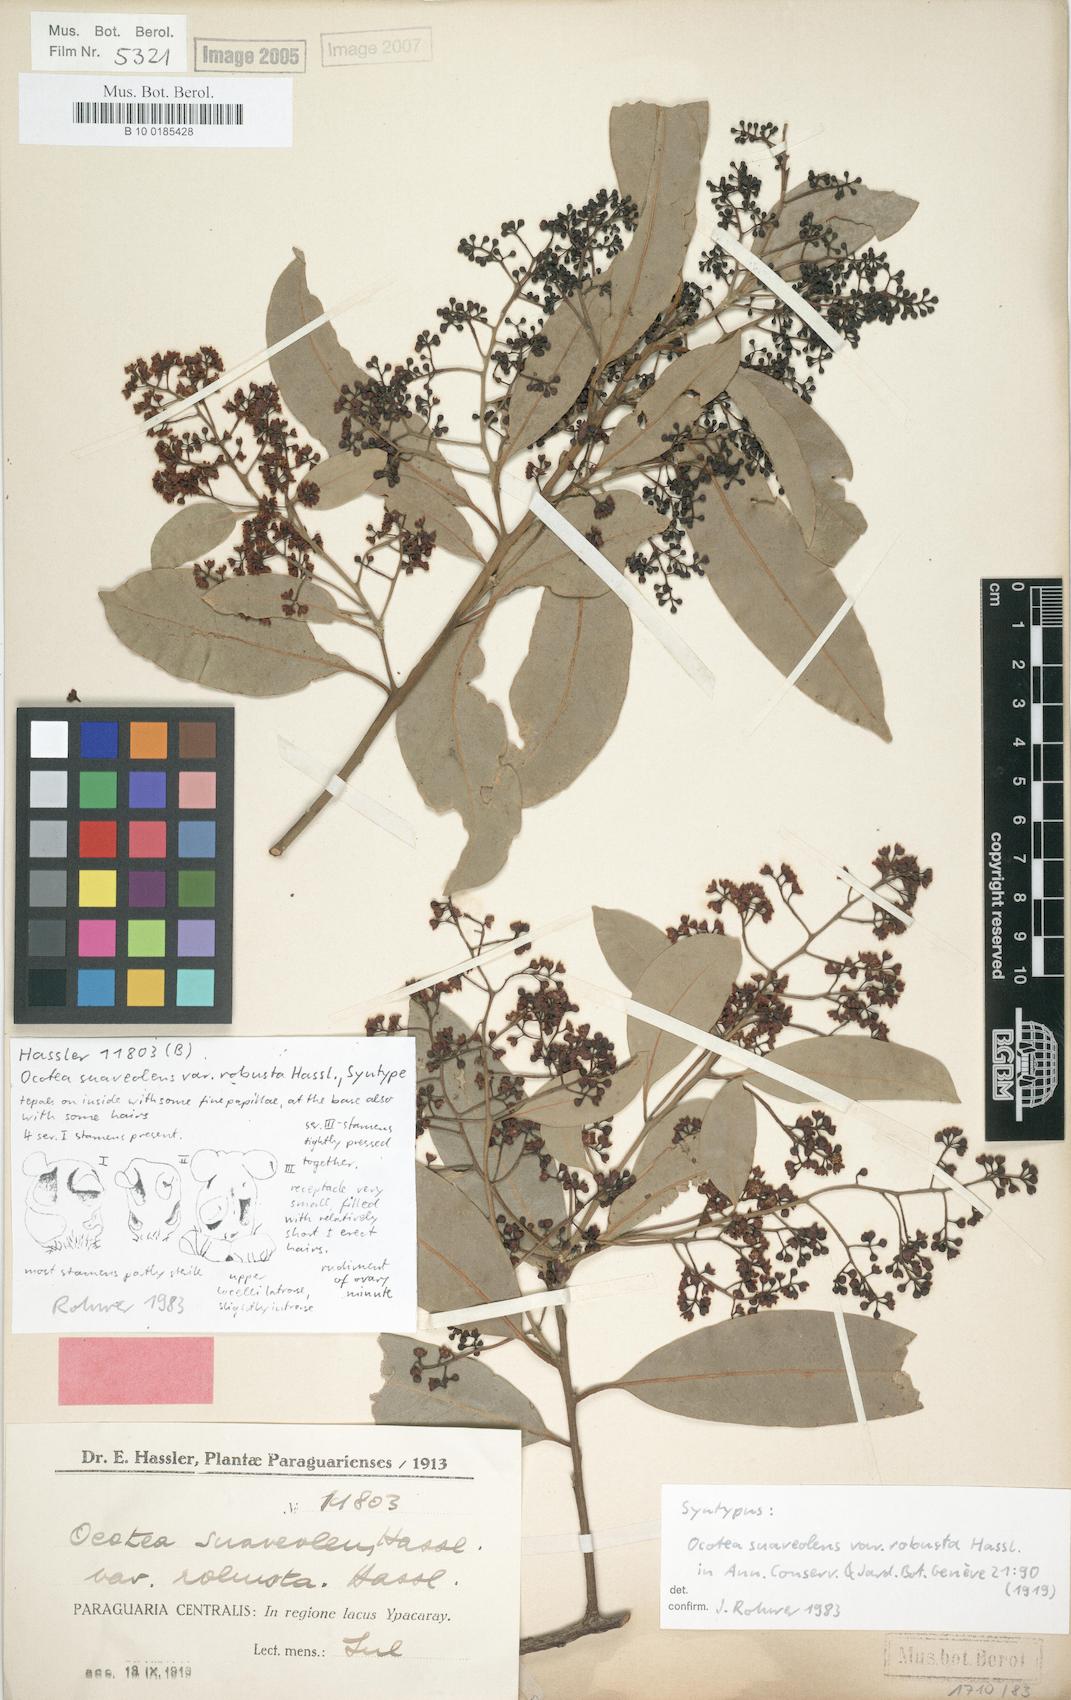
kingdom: Plantae
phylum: Tracheophyta
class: Magnoliopsida
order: Laurales
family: Lauraceae
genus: Ocotea
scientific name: Ocotea diospyrifolia
